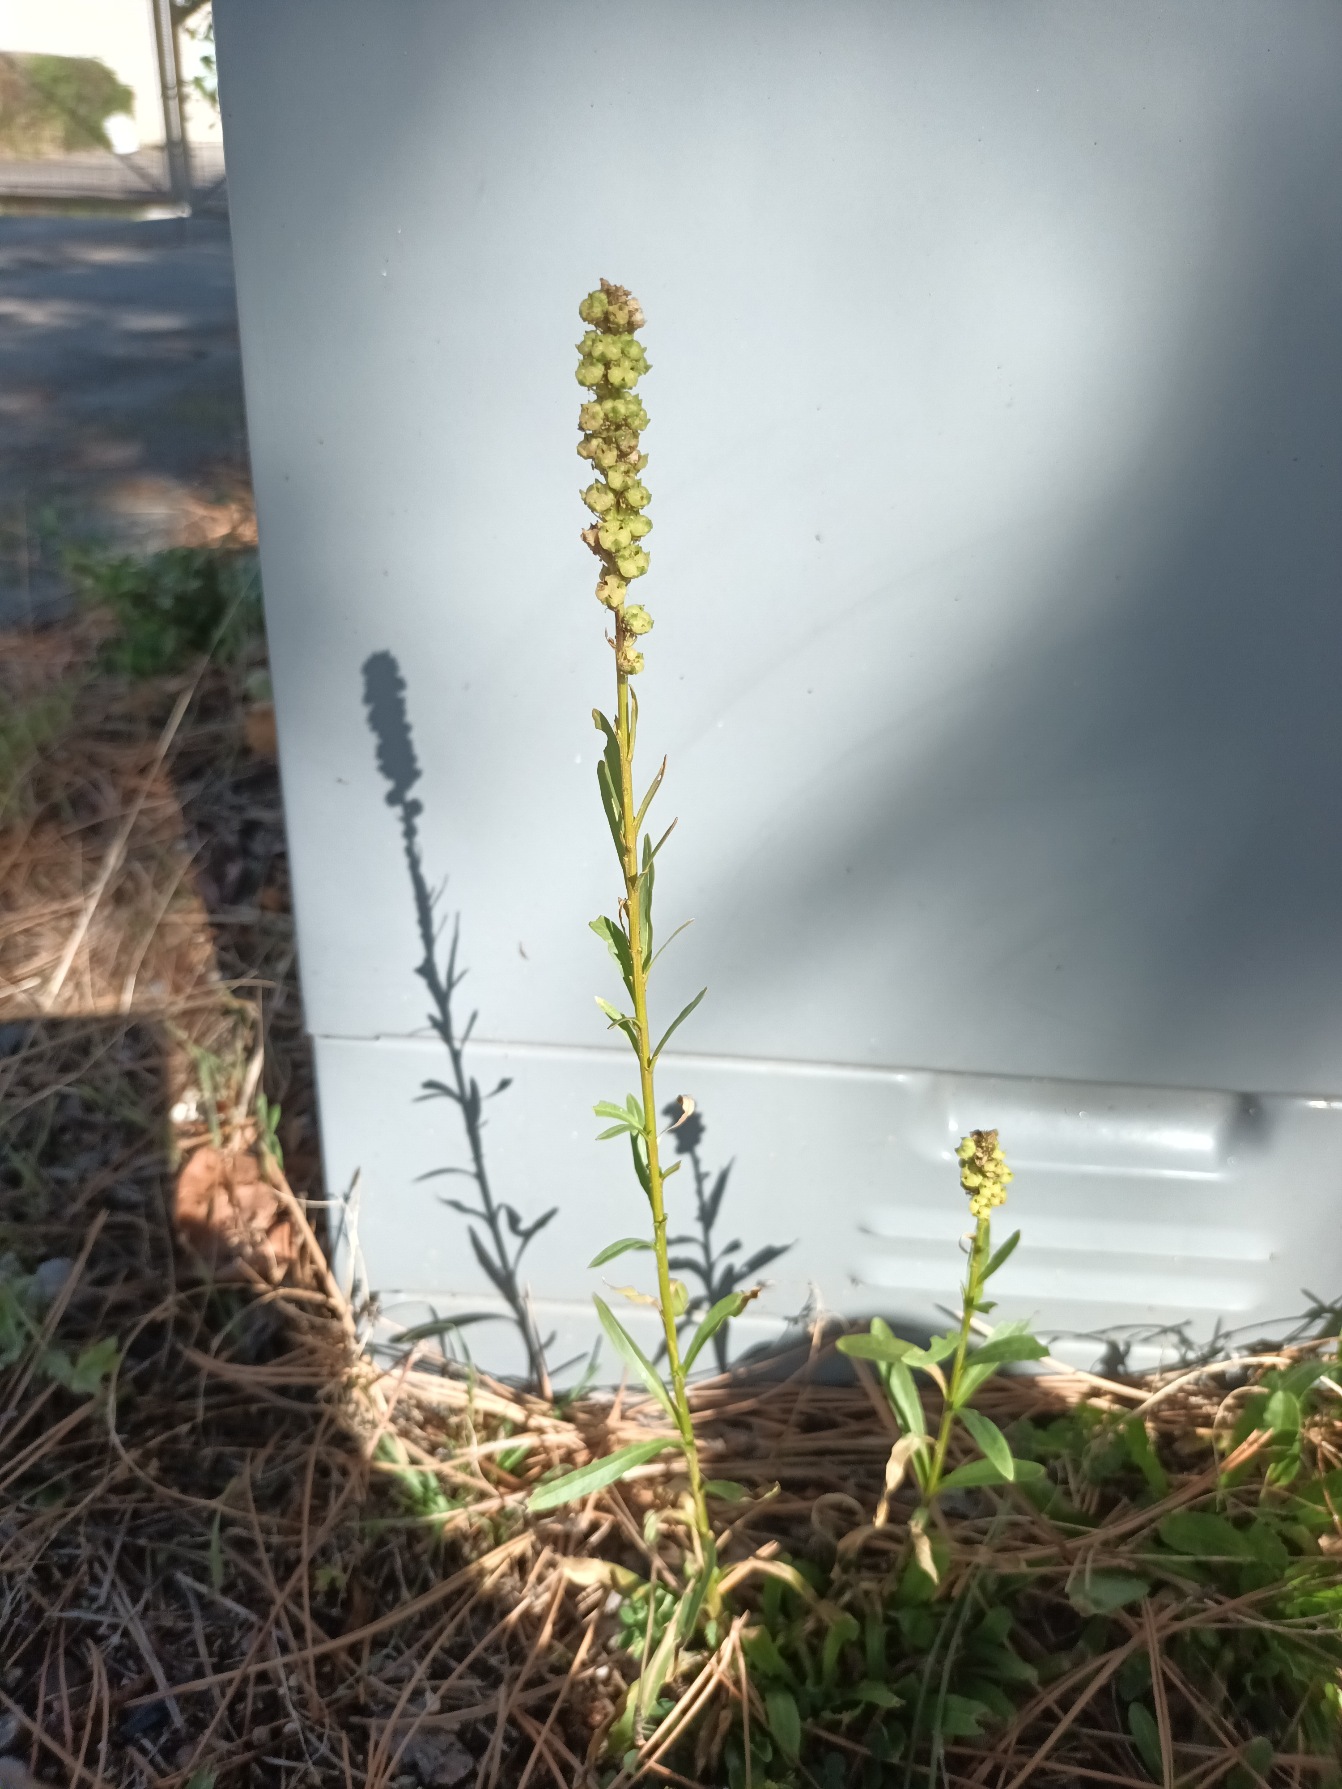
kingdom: Plantae
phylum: Tracheophyta
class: Magnoliopsida
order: Brassicales
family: Resedaceae
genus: Reseda
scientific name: Reseda luteola
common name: Farve-reseda
